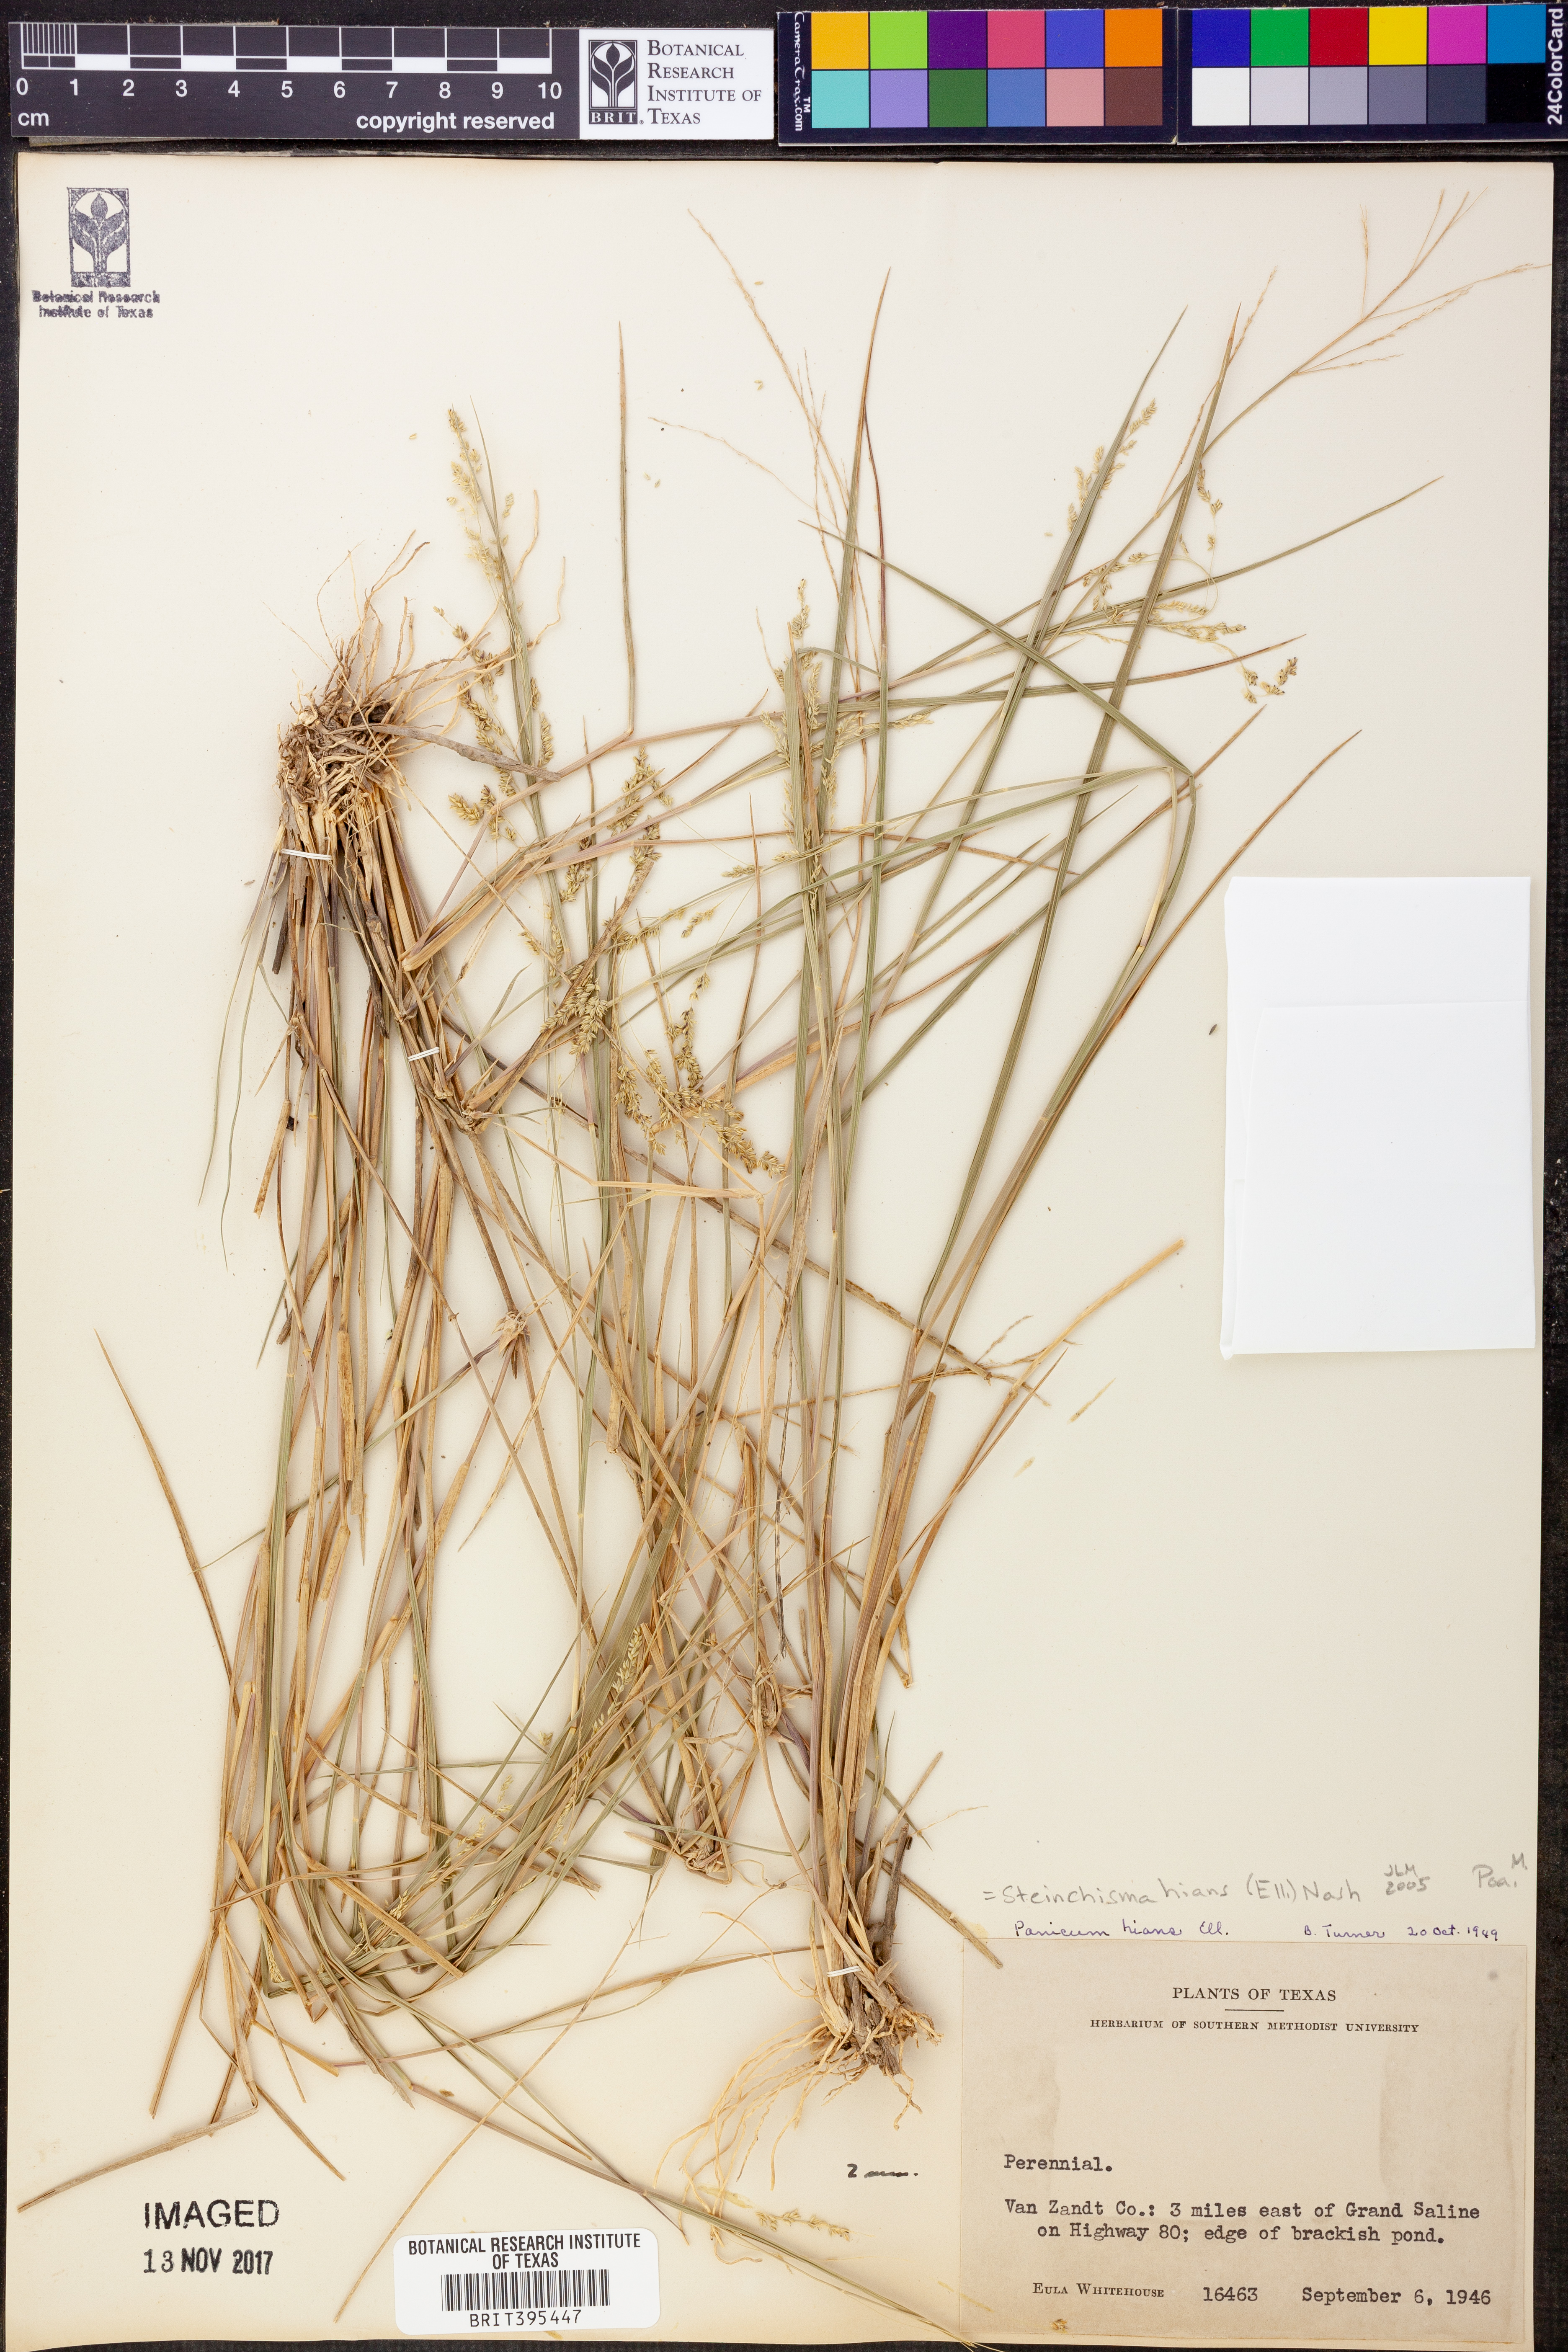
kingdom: Plantae
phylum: Tracheophyta
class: Liliopsida
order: Poales
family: Poaceae
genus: Steinchisma
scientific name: Steinchisma hians
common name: Gaping panic grass
